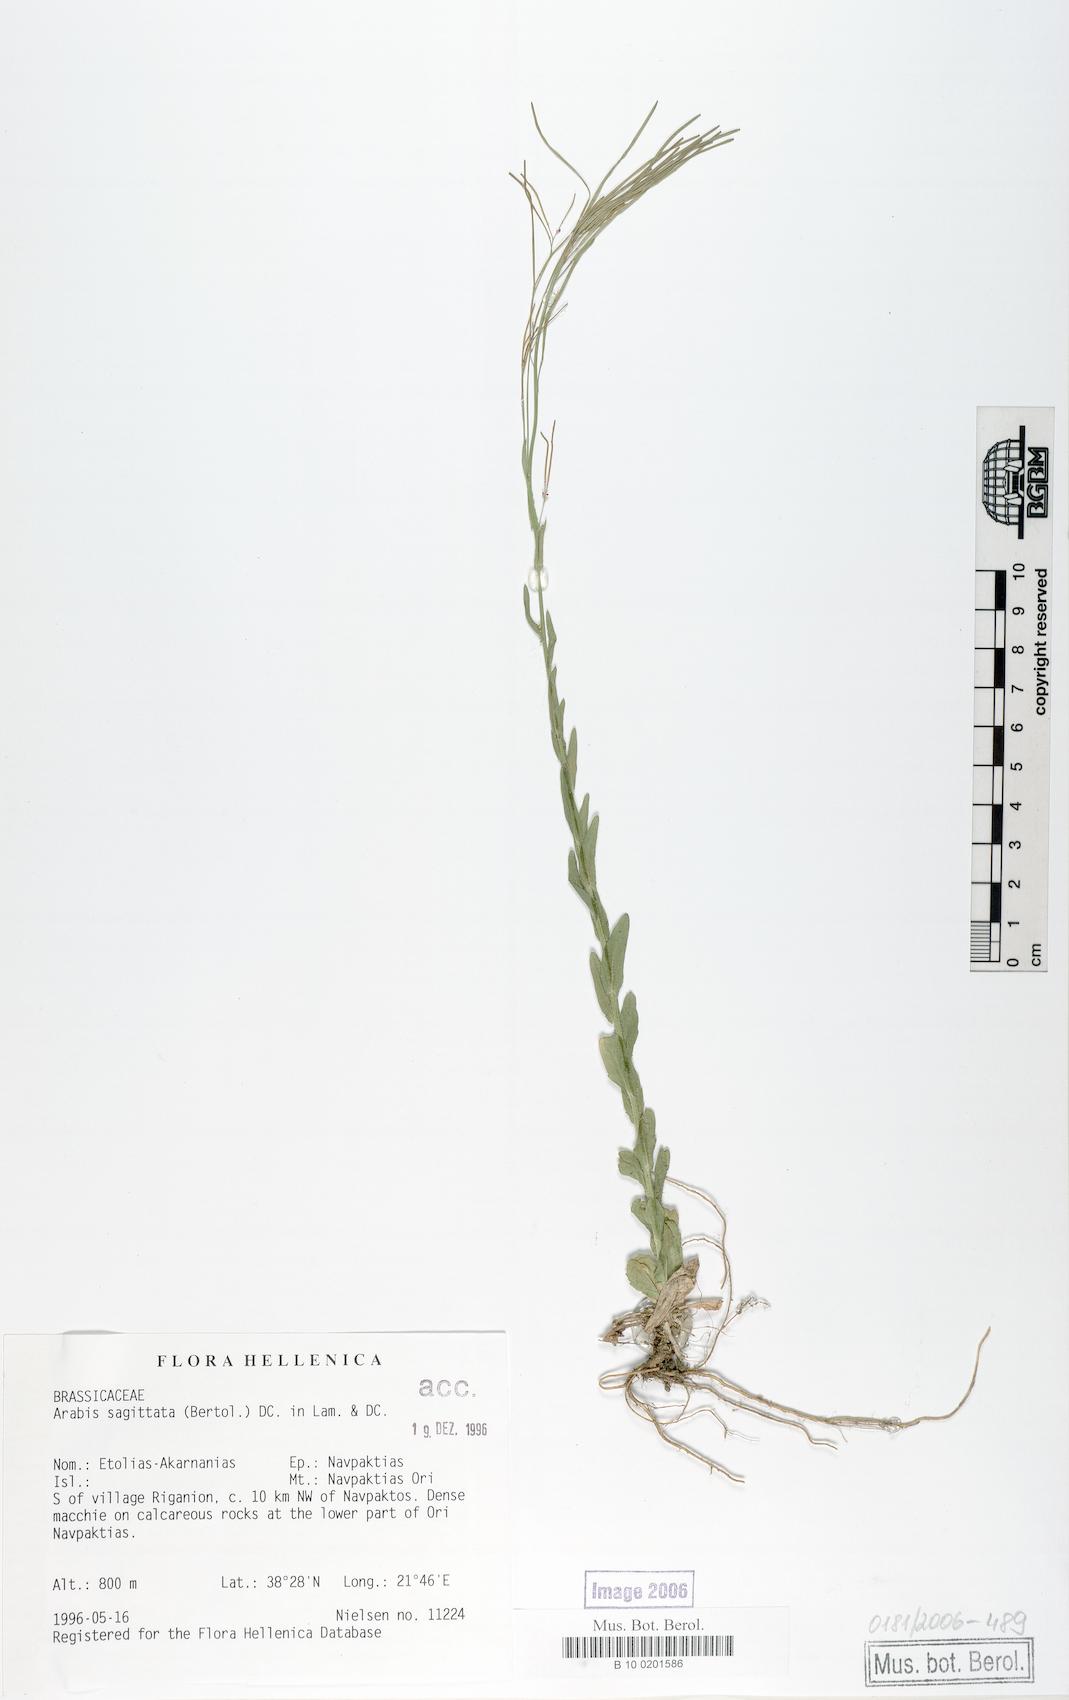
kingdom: Plantae
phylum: Tracheophyta
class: Magnoliopsida
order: Brassicales
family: Brassicaceae
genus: Arabis
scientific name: Arabis sagittata
